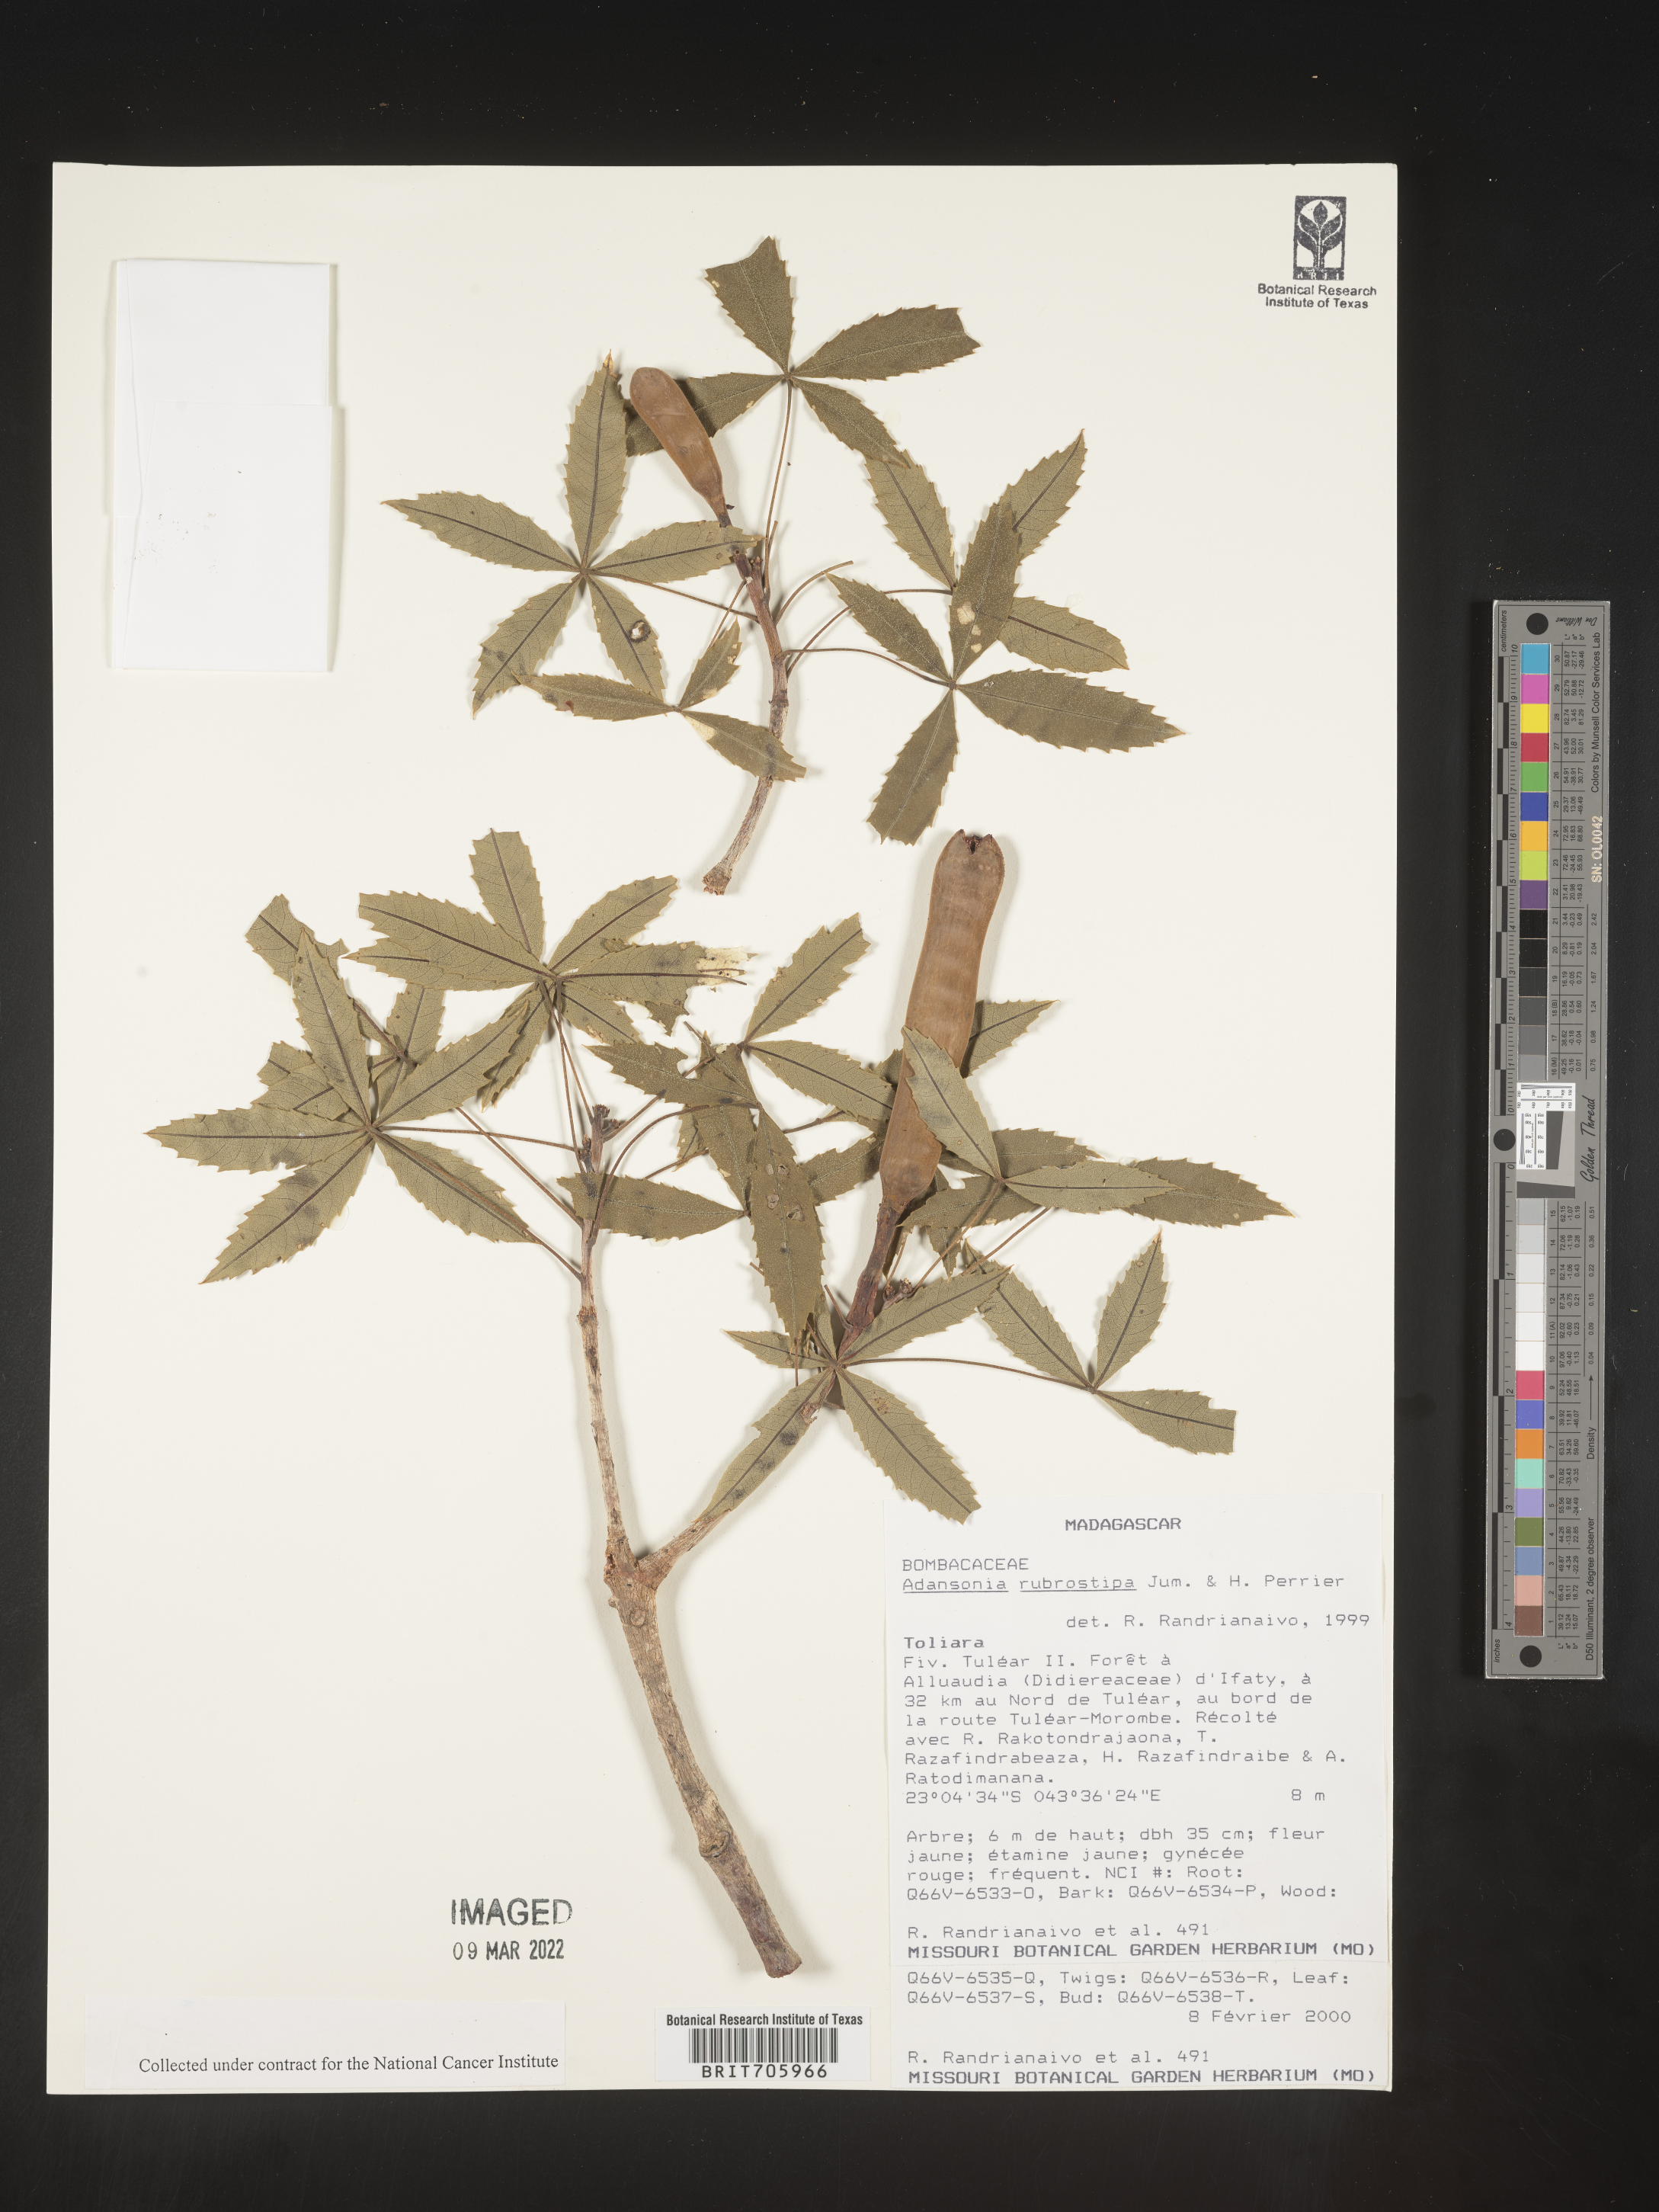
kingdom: Plantae
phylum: Tracheophyta
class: Magnoliopsida
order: Malvales
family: Malvaceae
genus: Adansonia
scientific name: Adansonia
